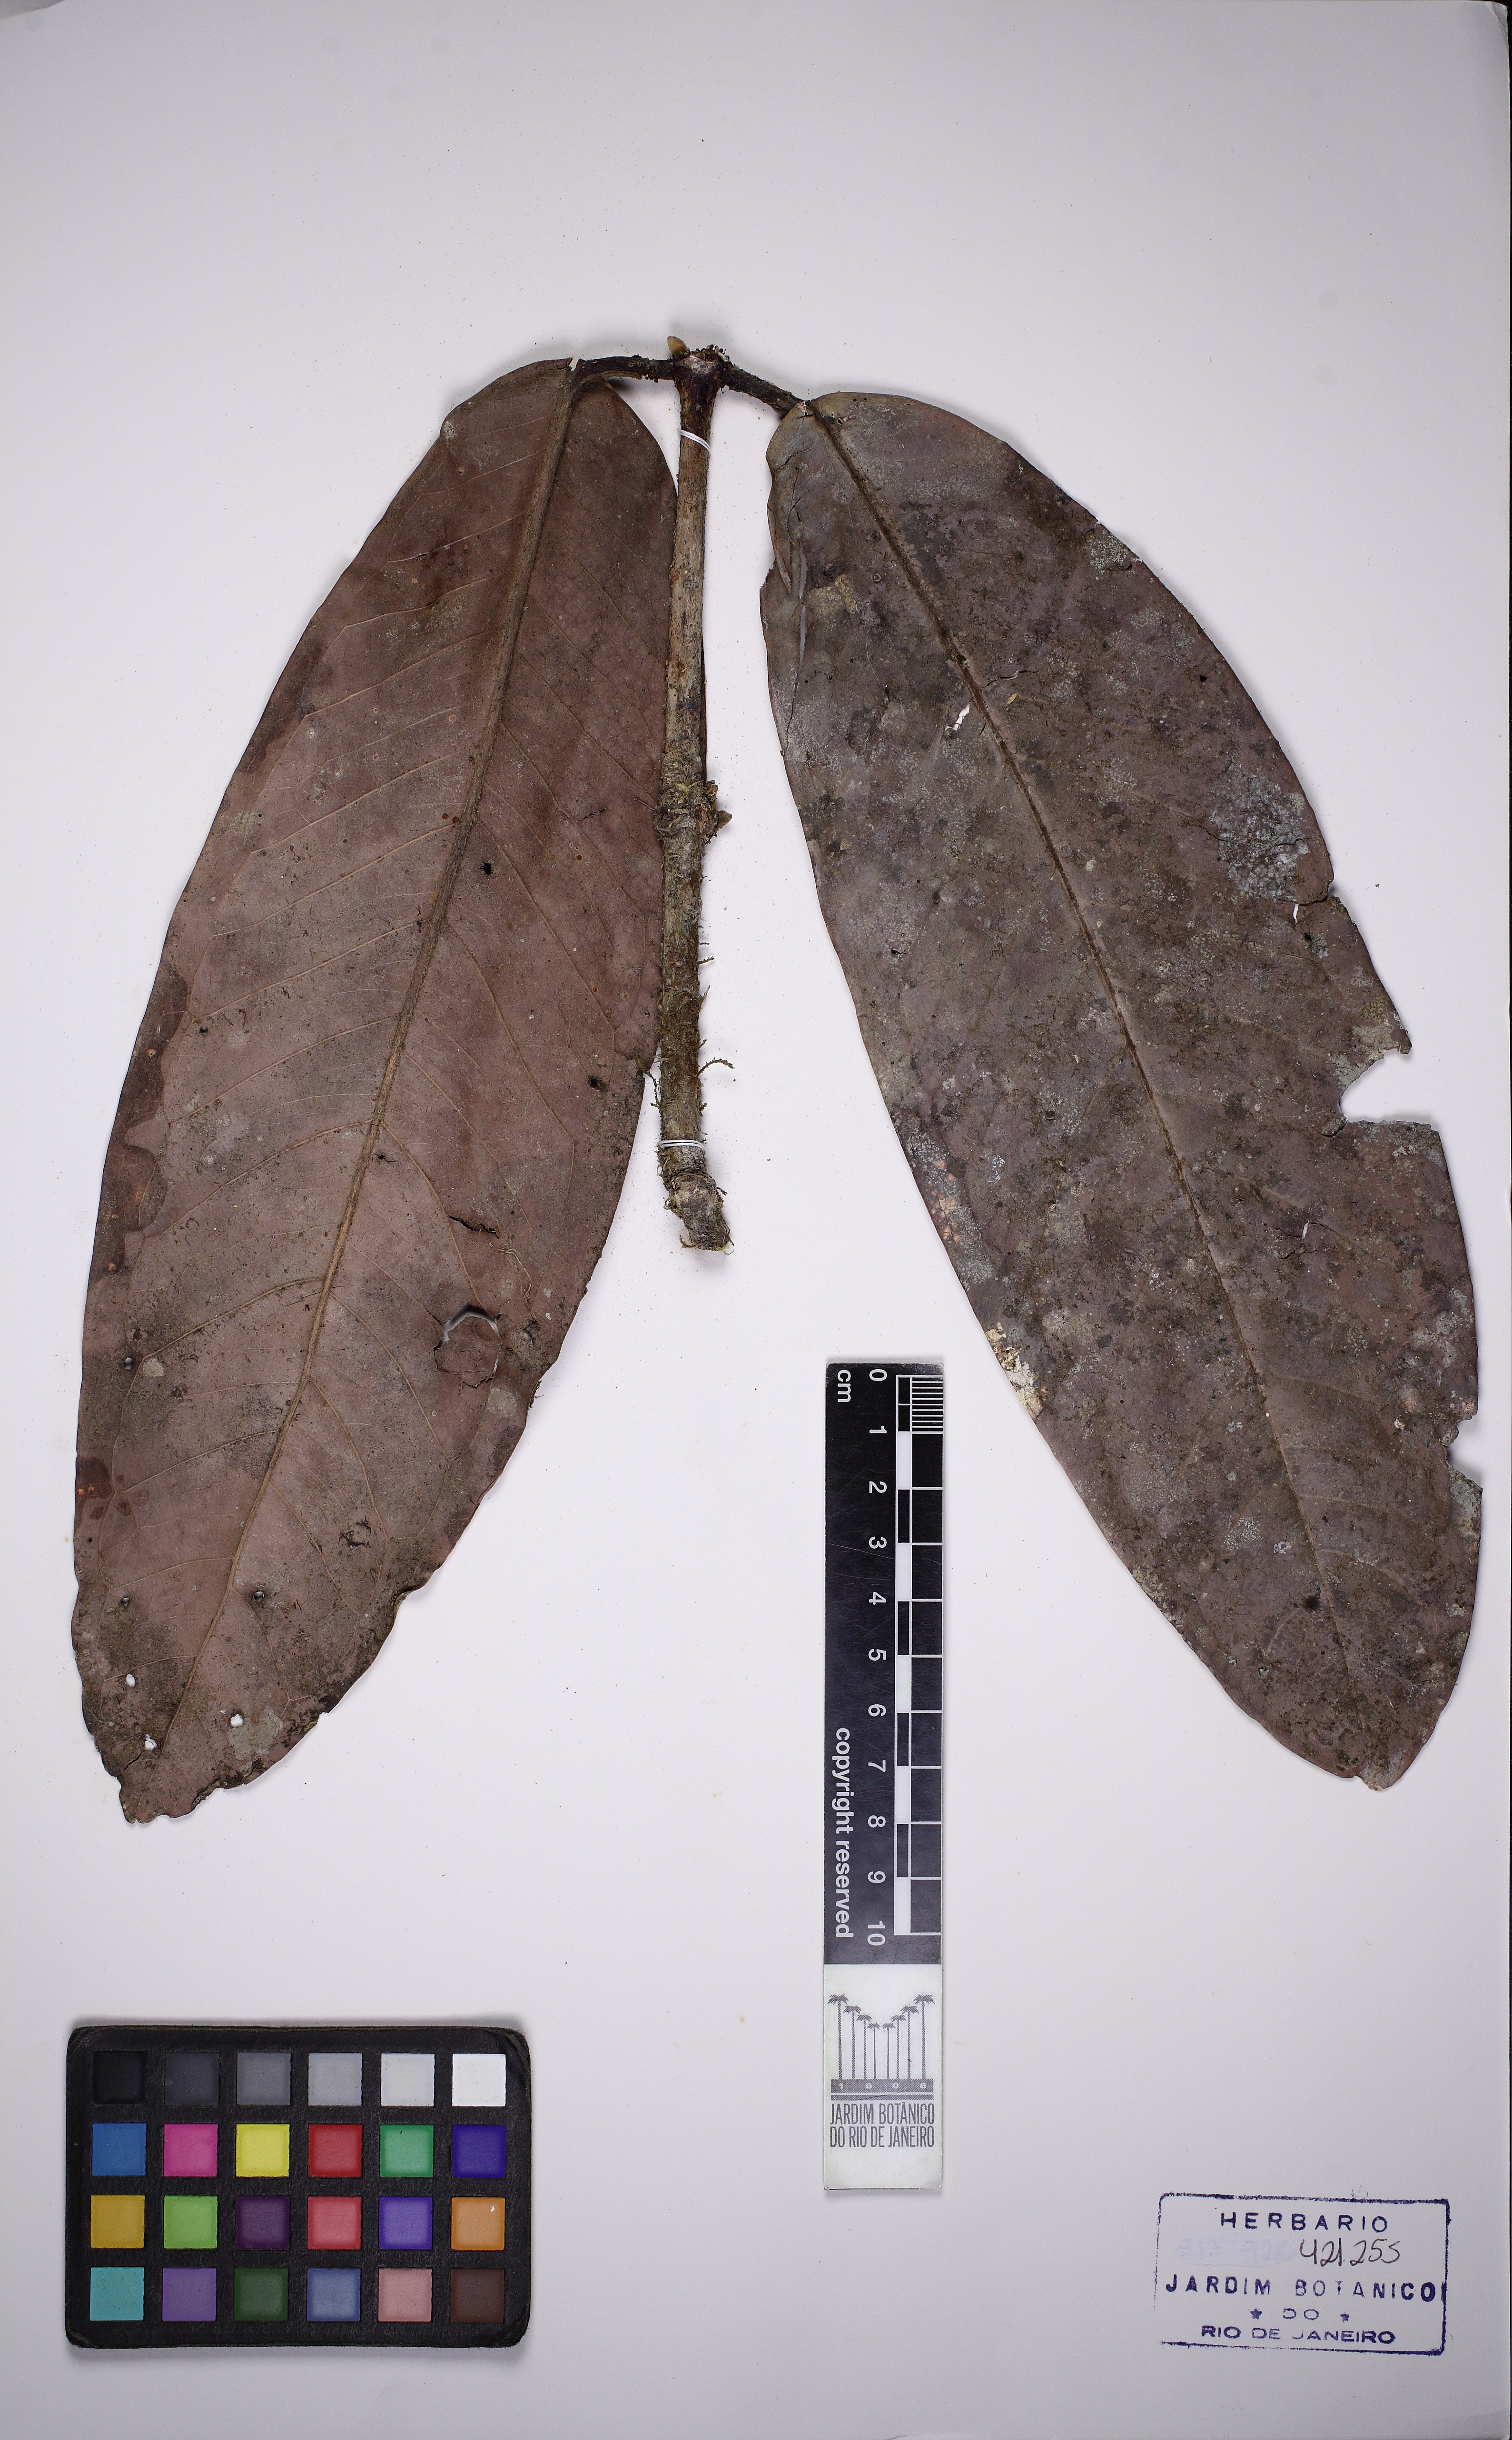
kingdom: Plantae
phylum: Tracheophyta
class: Magnoliopsida
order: Myrtales
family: Myrtaceae
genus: Myrcia
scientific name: Myrcia neotomentosa
